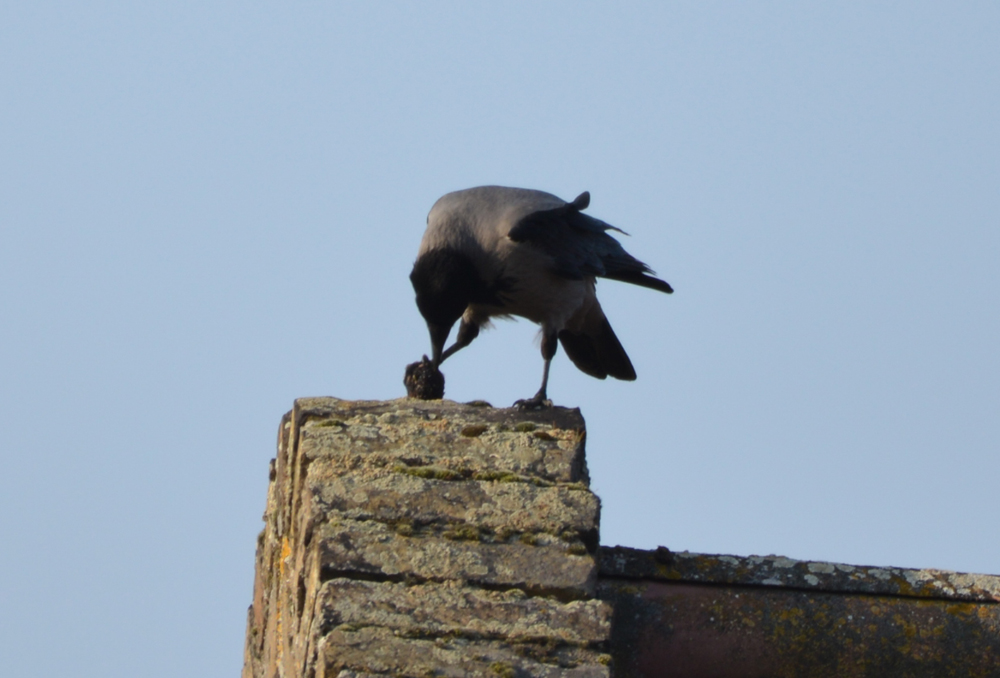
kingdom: Animalia
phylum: Chordata
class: Aves
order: Passeriformes
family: Corvidae
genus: Corvus
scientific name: Corvus cornix
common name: Hooded crow
